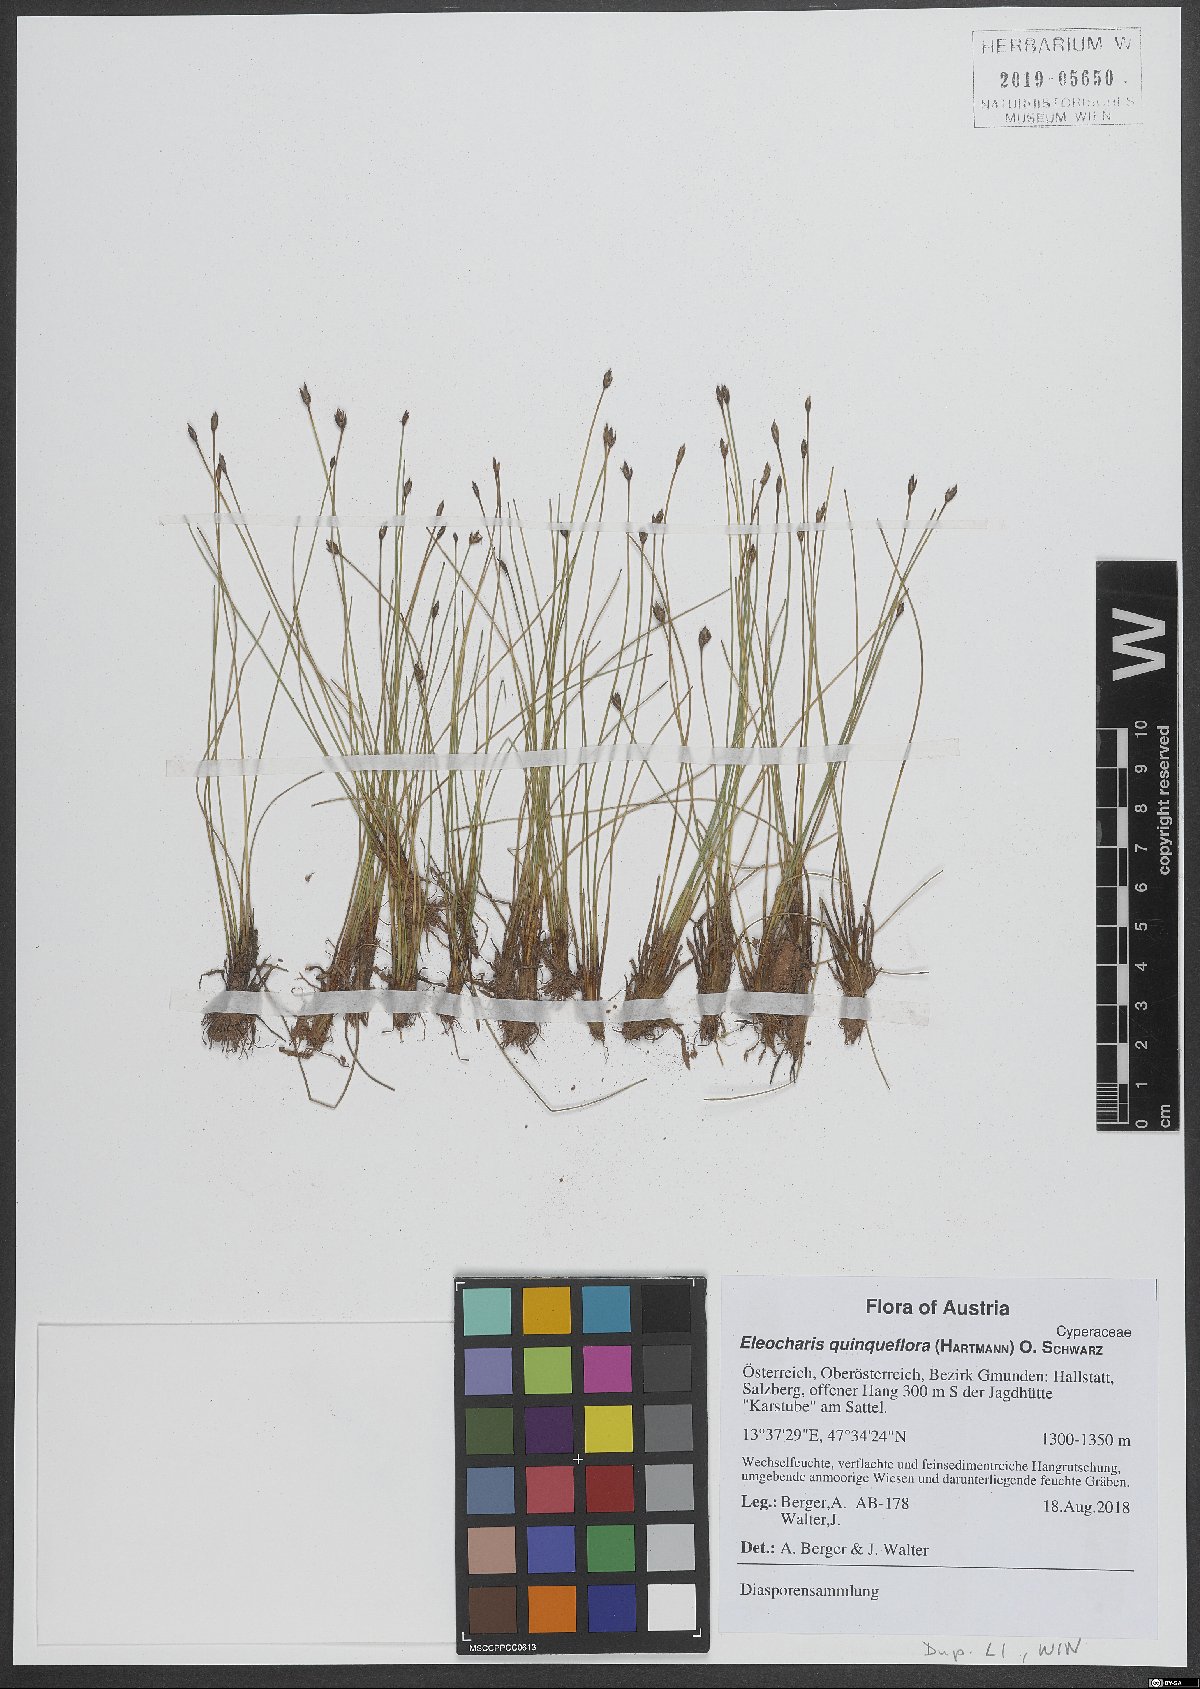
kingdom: Plantae
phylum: Tracheophyta
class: Liliopsida
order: Poales
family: Cyperaceae
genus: Eleocharis
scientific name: Eleocharis quinqueflora
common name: Few-flowered spike-rush
